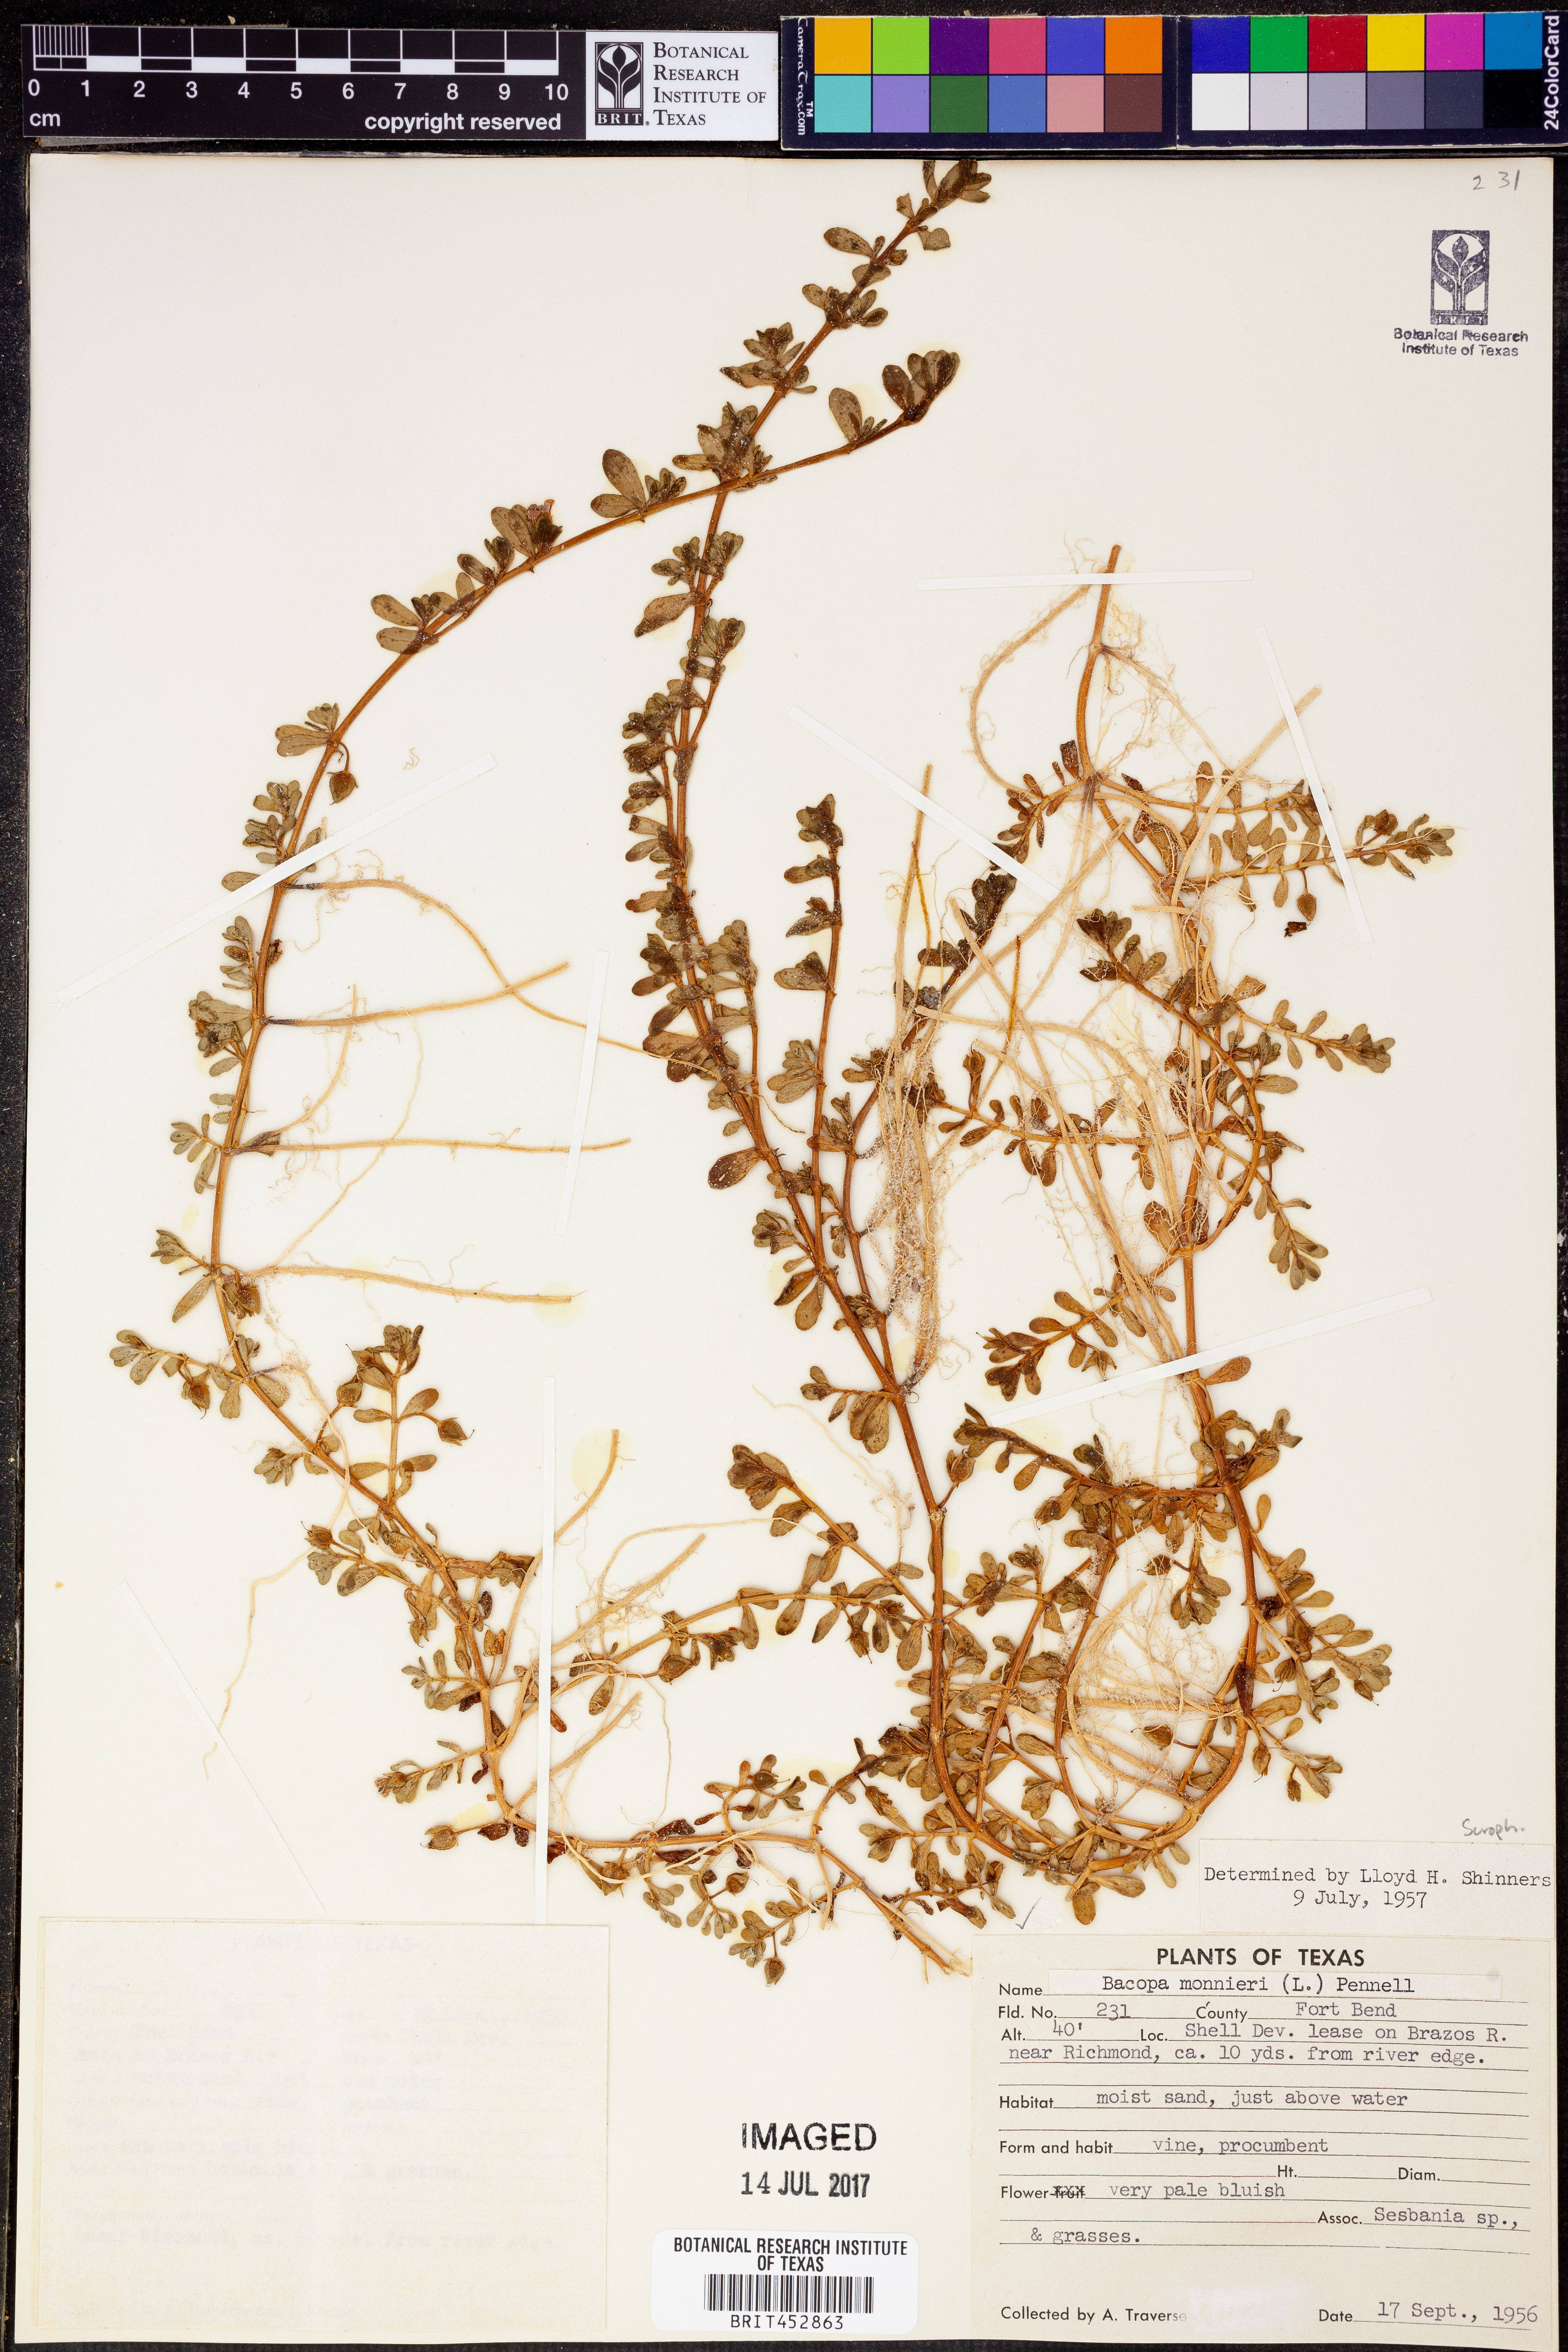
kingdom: Plantae
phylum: Tracheophyta
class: Magnoliopsida
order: Lamiales
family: Plantaginaceae
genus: Bacopa
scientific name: Bacopa monnieri
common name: Indian-pennywort
